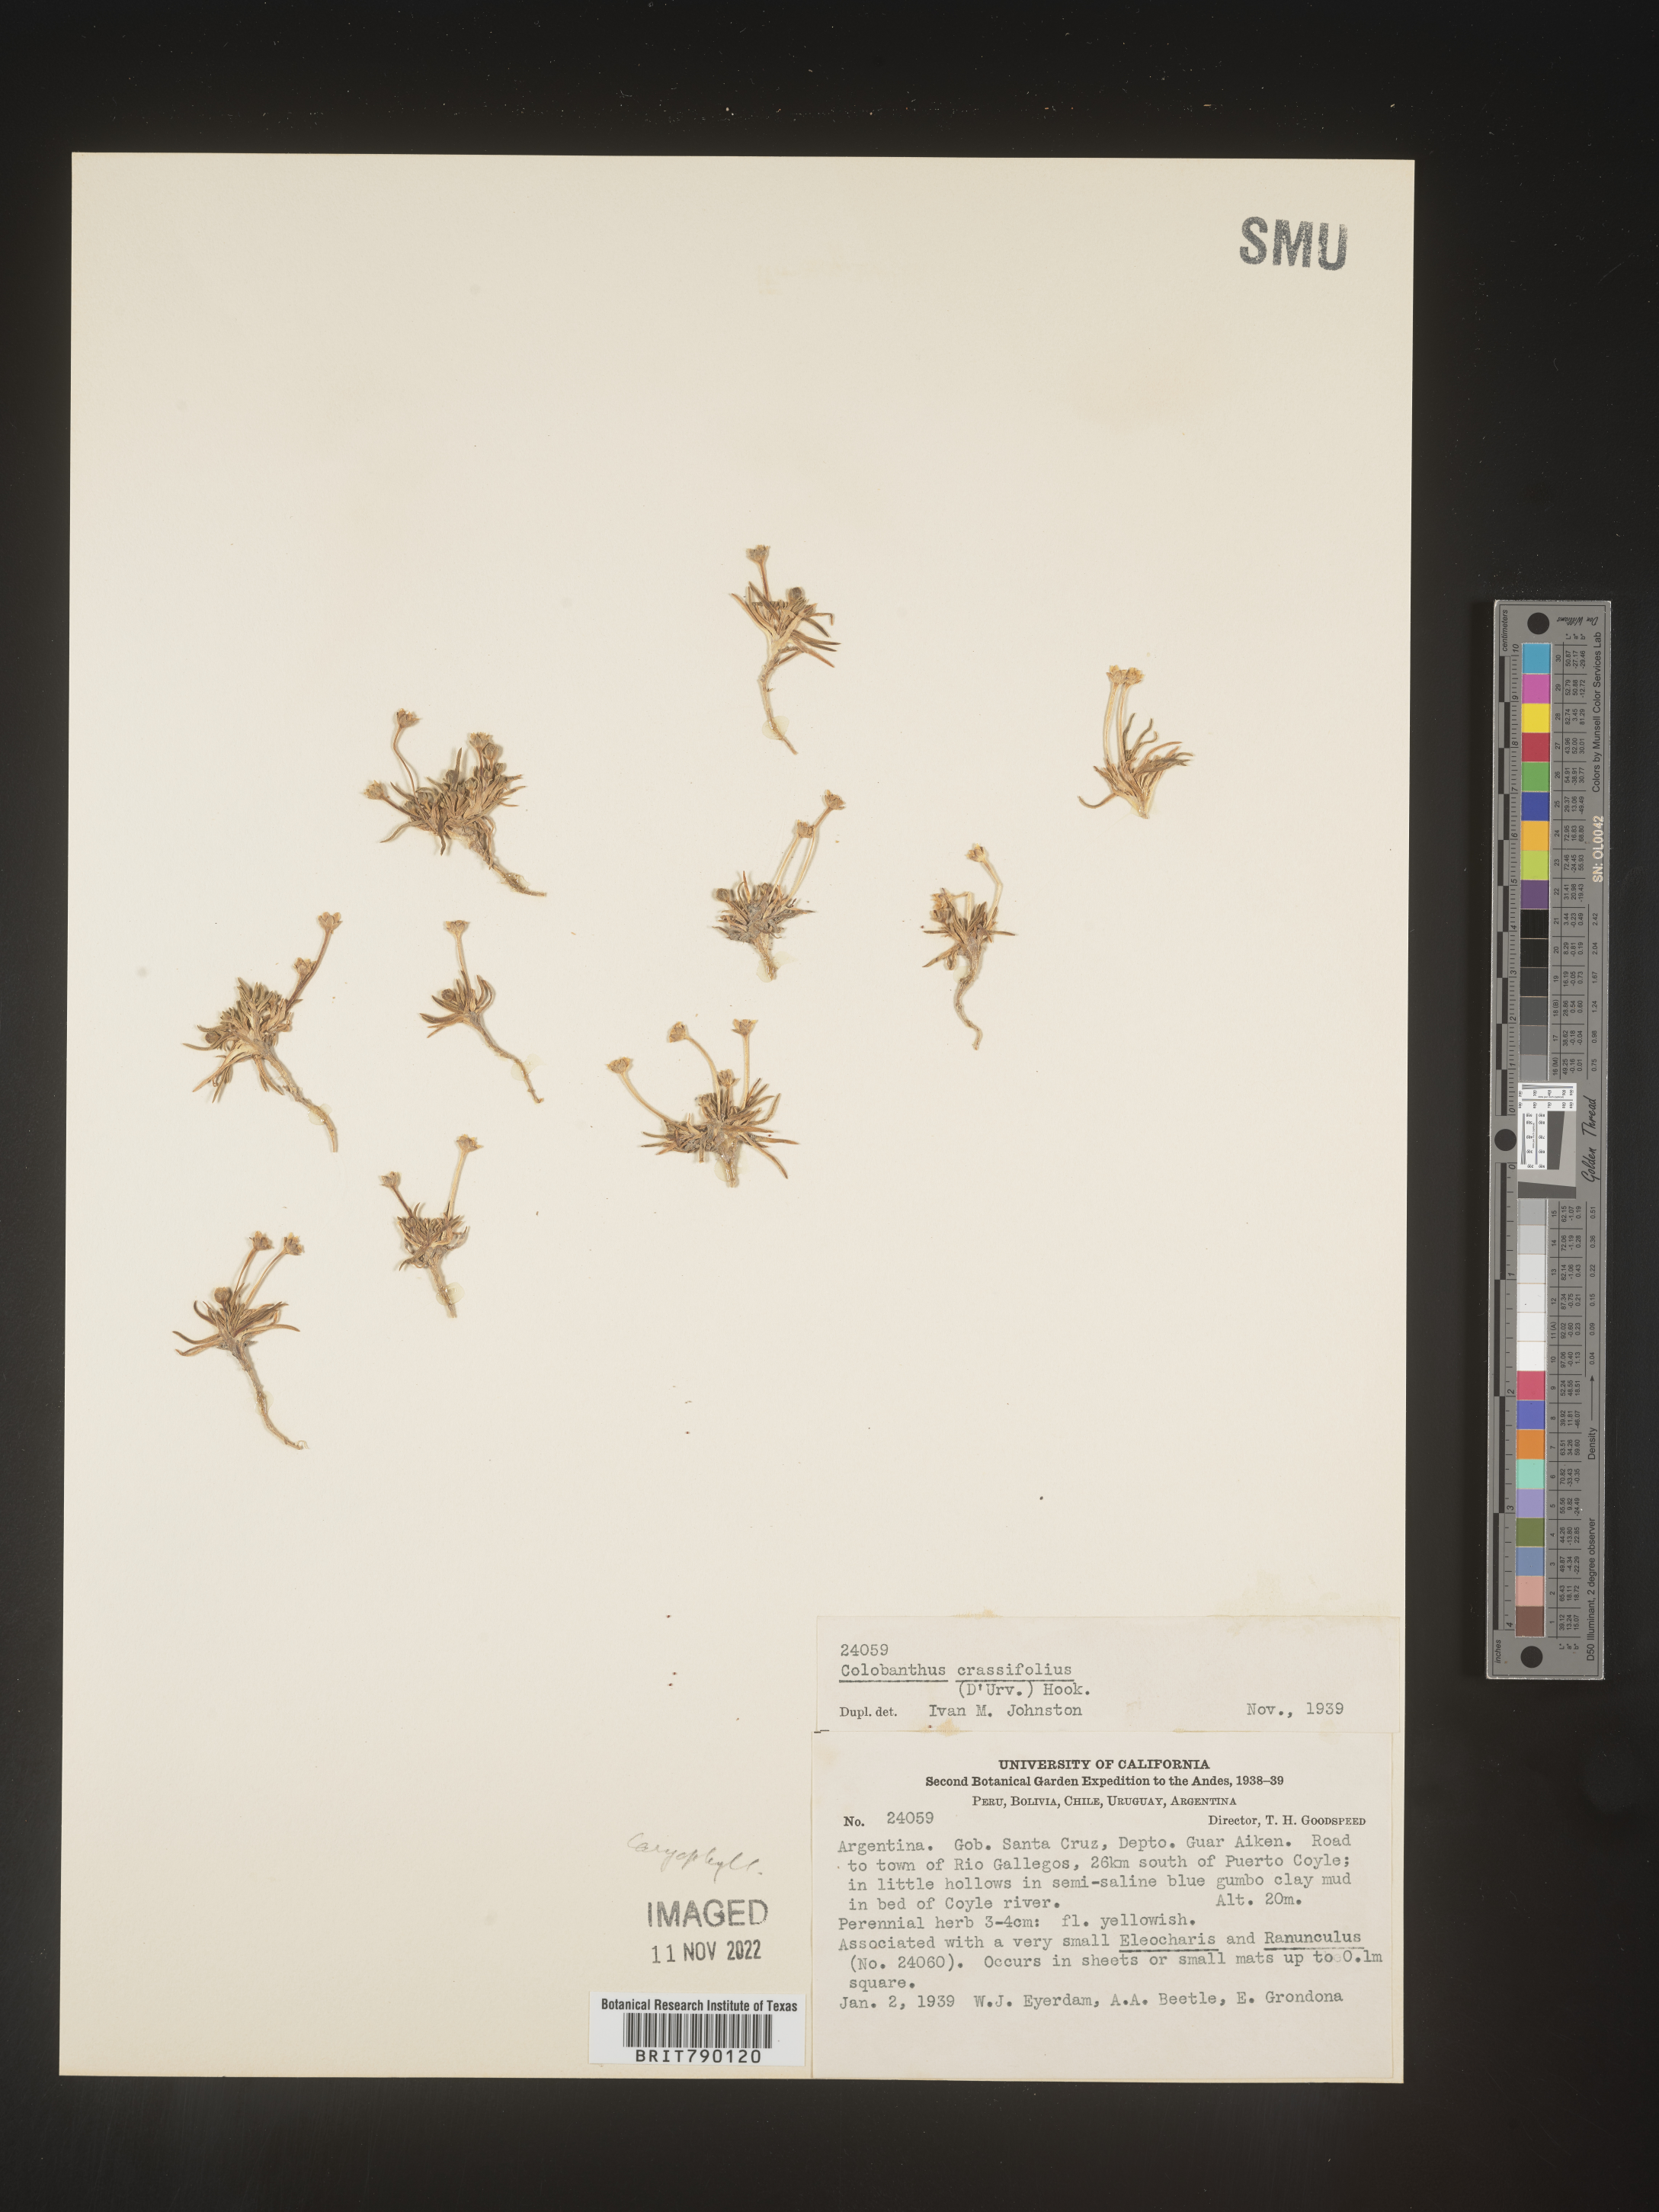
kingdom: Plantae
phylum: Tracheophyta
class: Magnoliopsida
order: Caryophyllales
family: Caryophyllaceae
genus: Colobanthus
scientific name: Colobanthus
